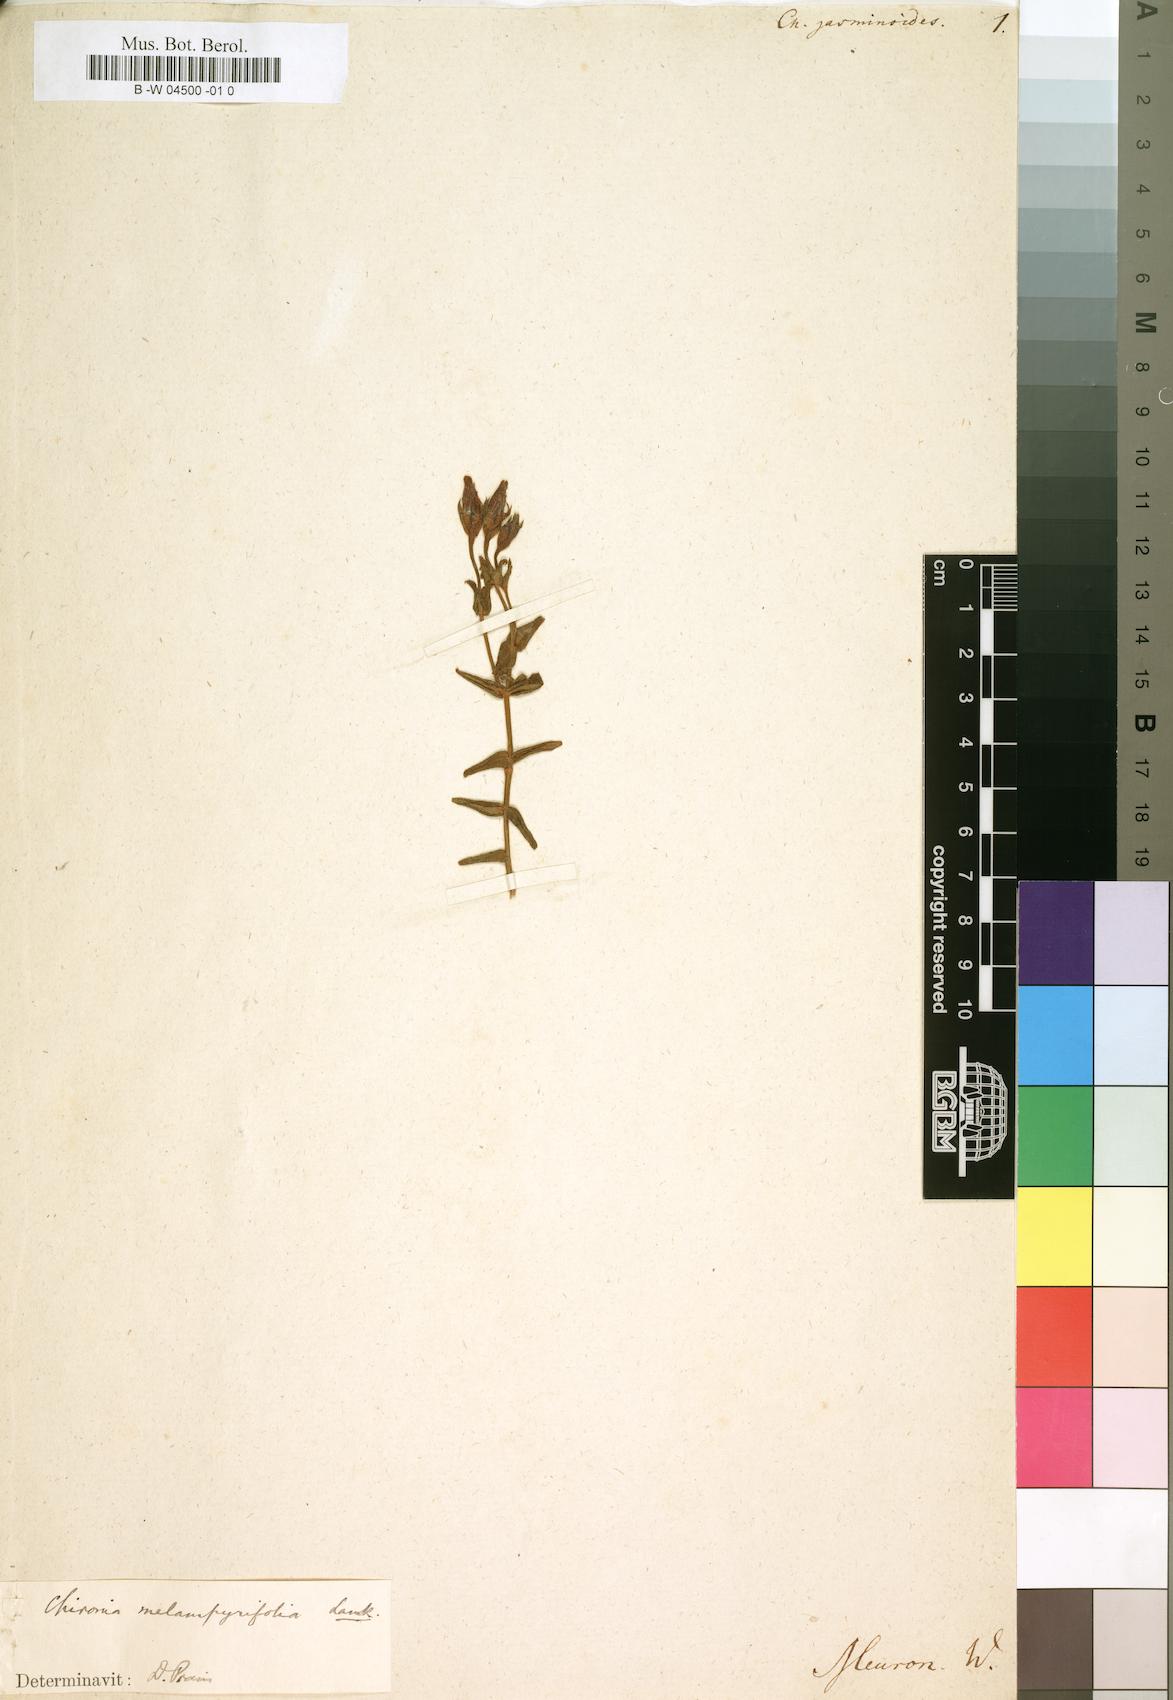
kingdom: Plantae
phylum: Tracheophyta
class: Magnoliopsida
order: Gentianales
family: Gentianaceae
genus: Chironia
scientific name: Chironia jasminoides
